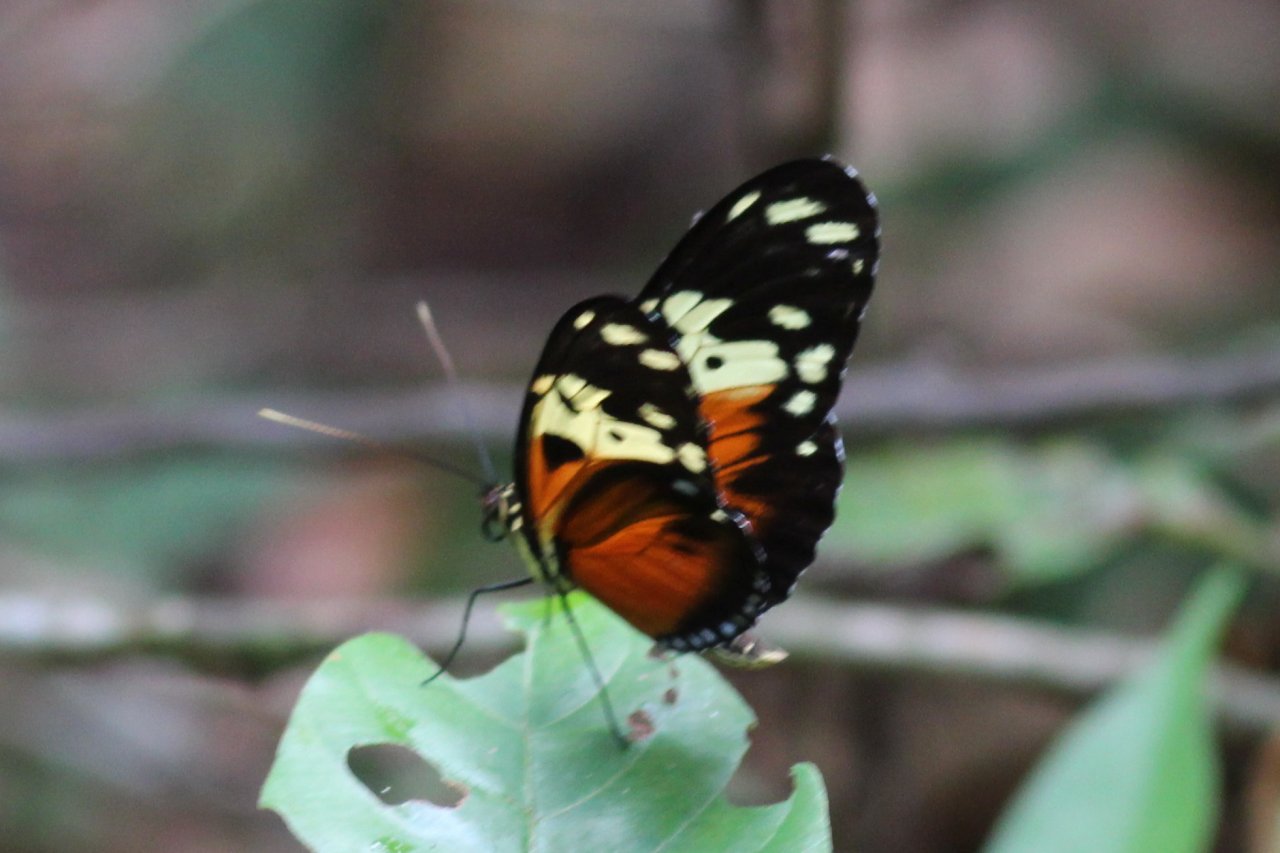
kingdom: Animalia
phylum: Arthropoda
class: Insecta
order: Lepidoptera
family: Nymphalidae
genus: Heliconius
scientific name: Heliconius hecale
